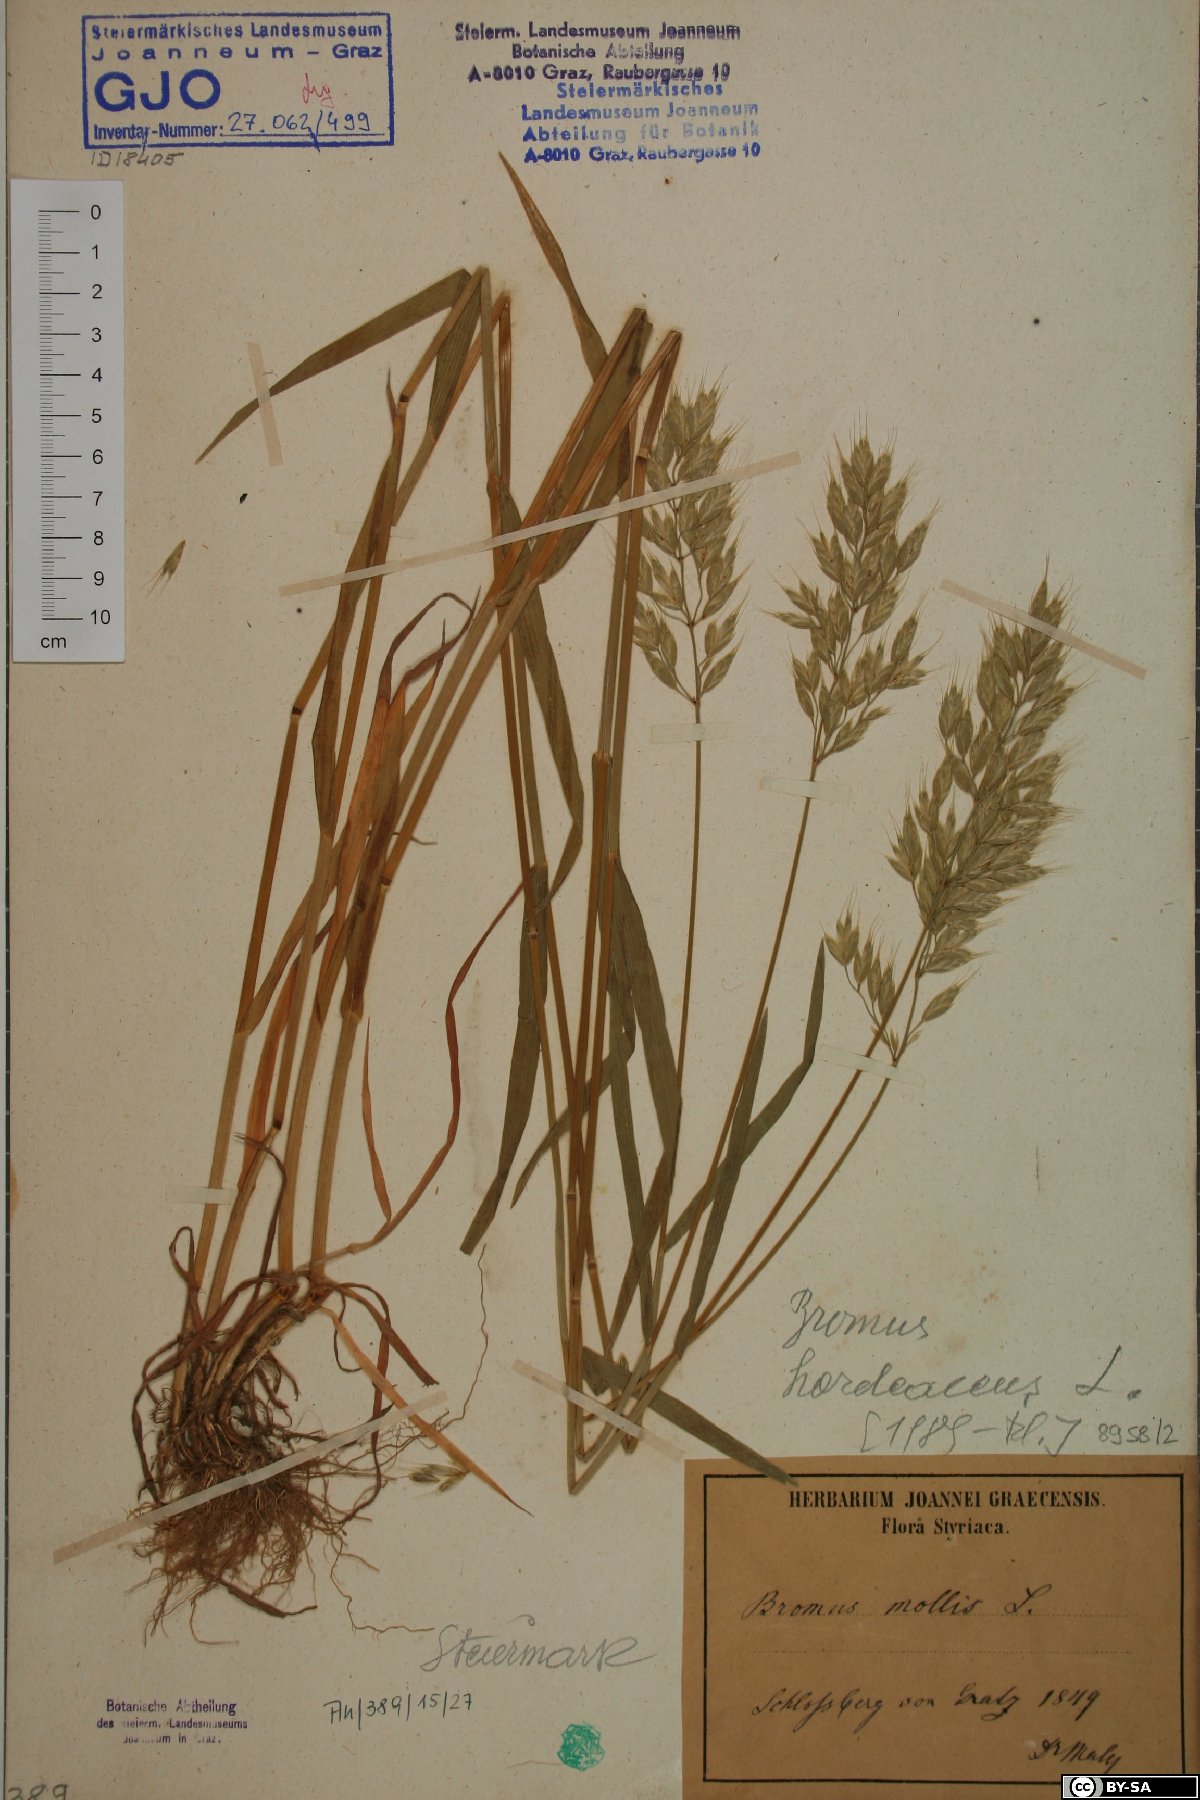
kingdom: Plantae
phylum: Tracheophyta
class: Liliopsida
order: Poales
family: Poaceae
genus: Bromus
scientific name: Bromus hordeaceus
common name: Soft brome
